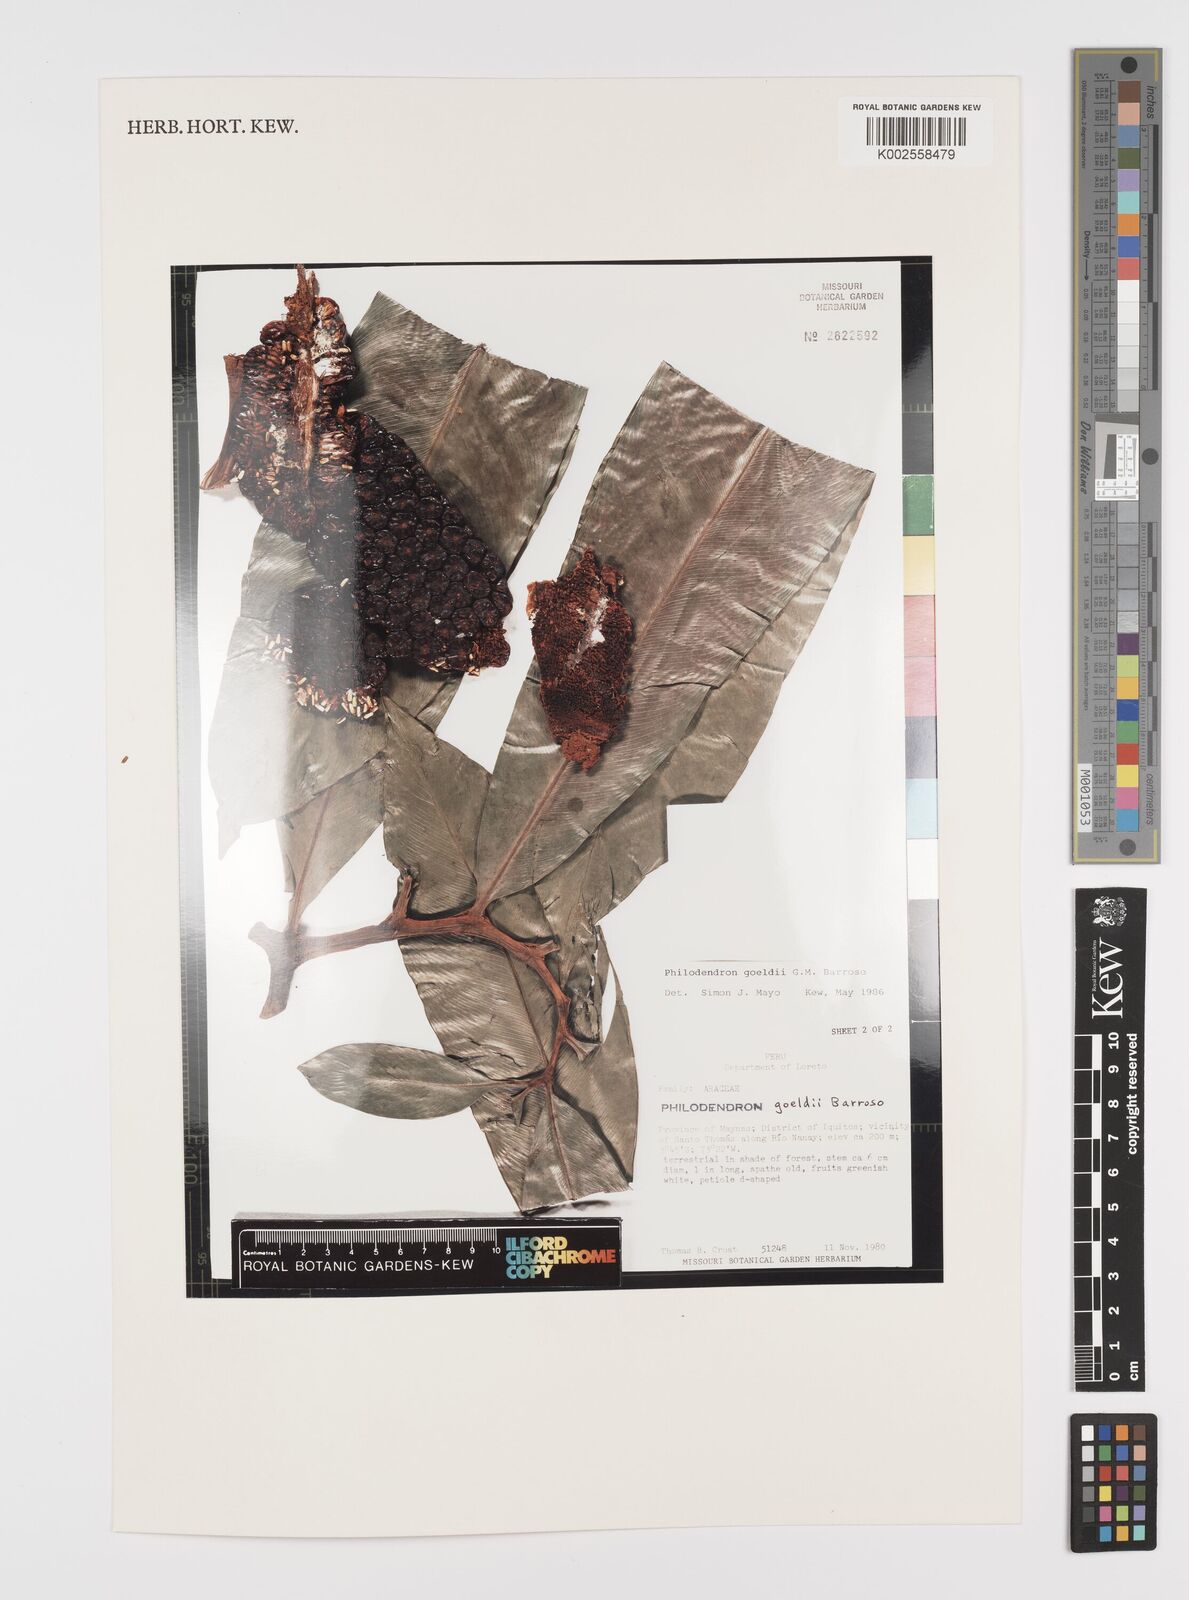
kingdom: Plantae
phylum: Tracheophyta
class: Liliopsida
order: Alismatales
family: Araceae
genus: Thaumatophyllum
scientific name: Thaumatophyllum spruceanum
